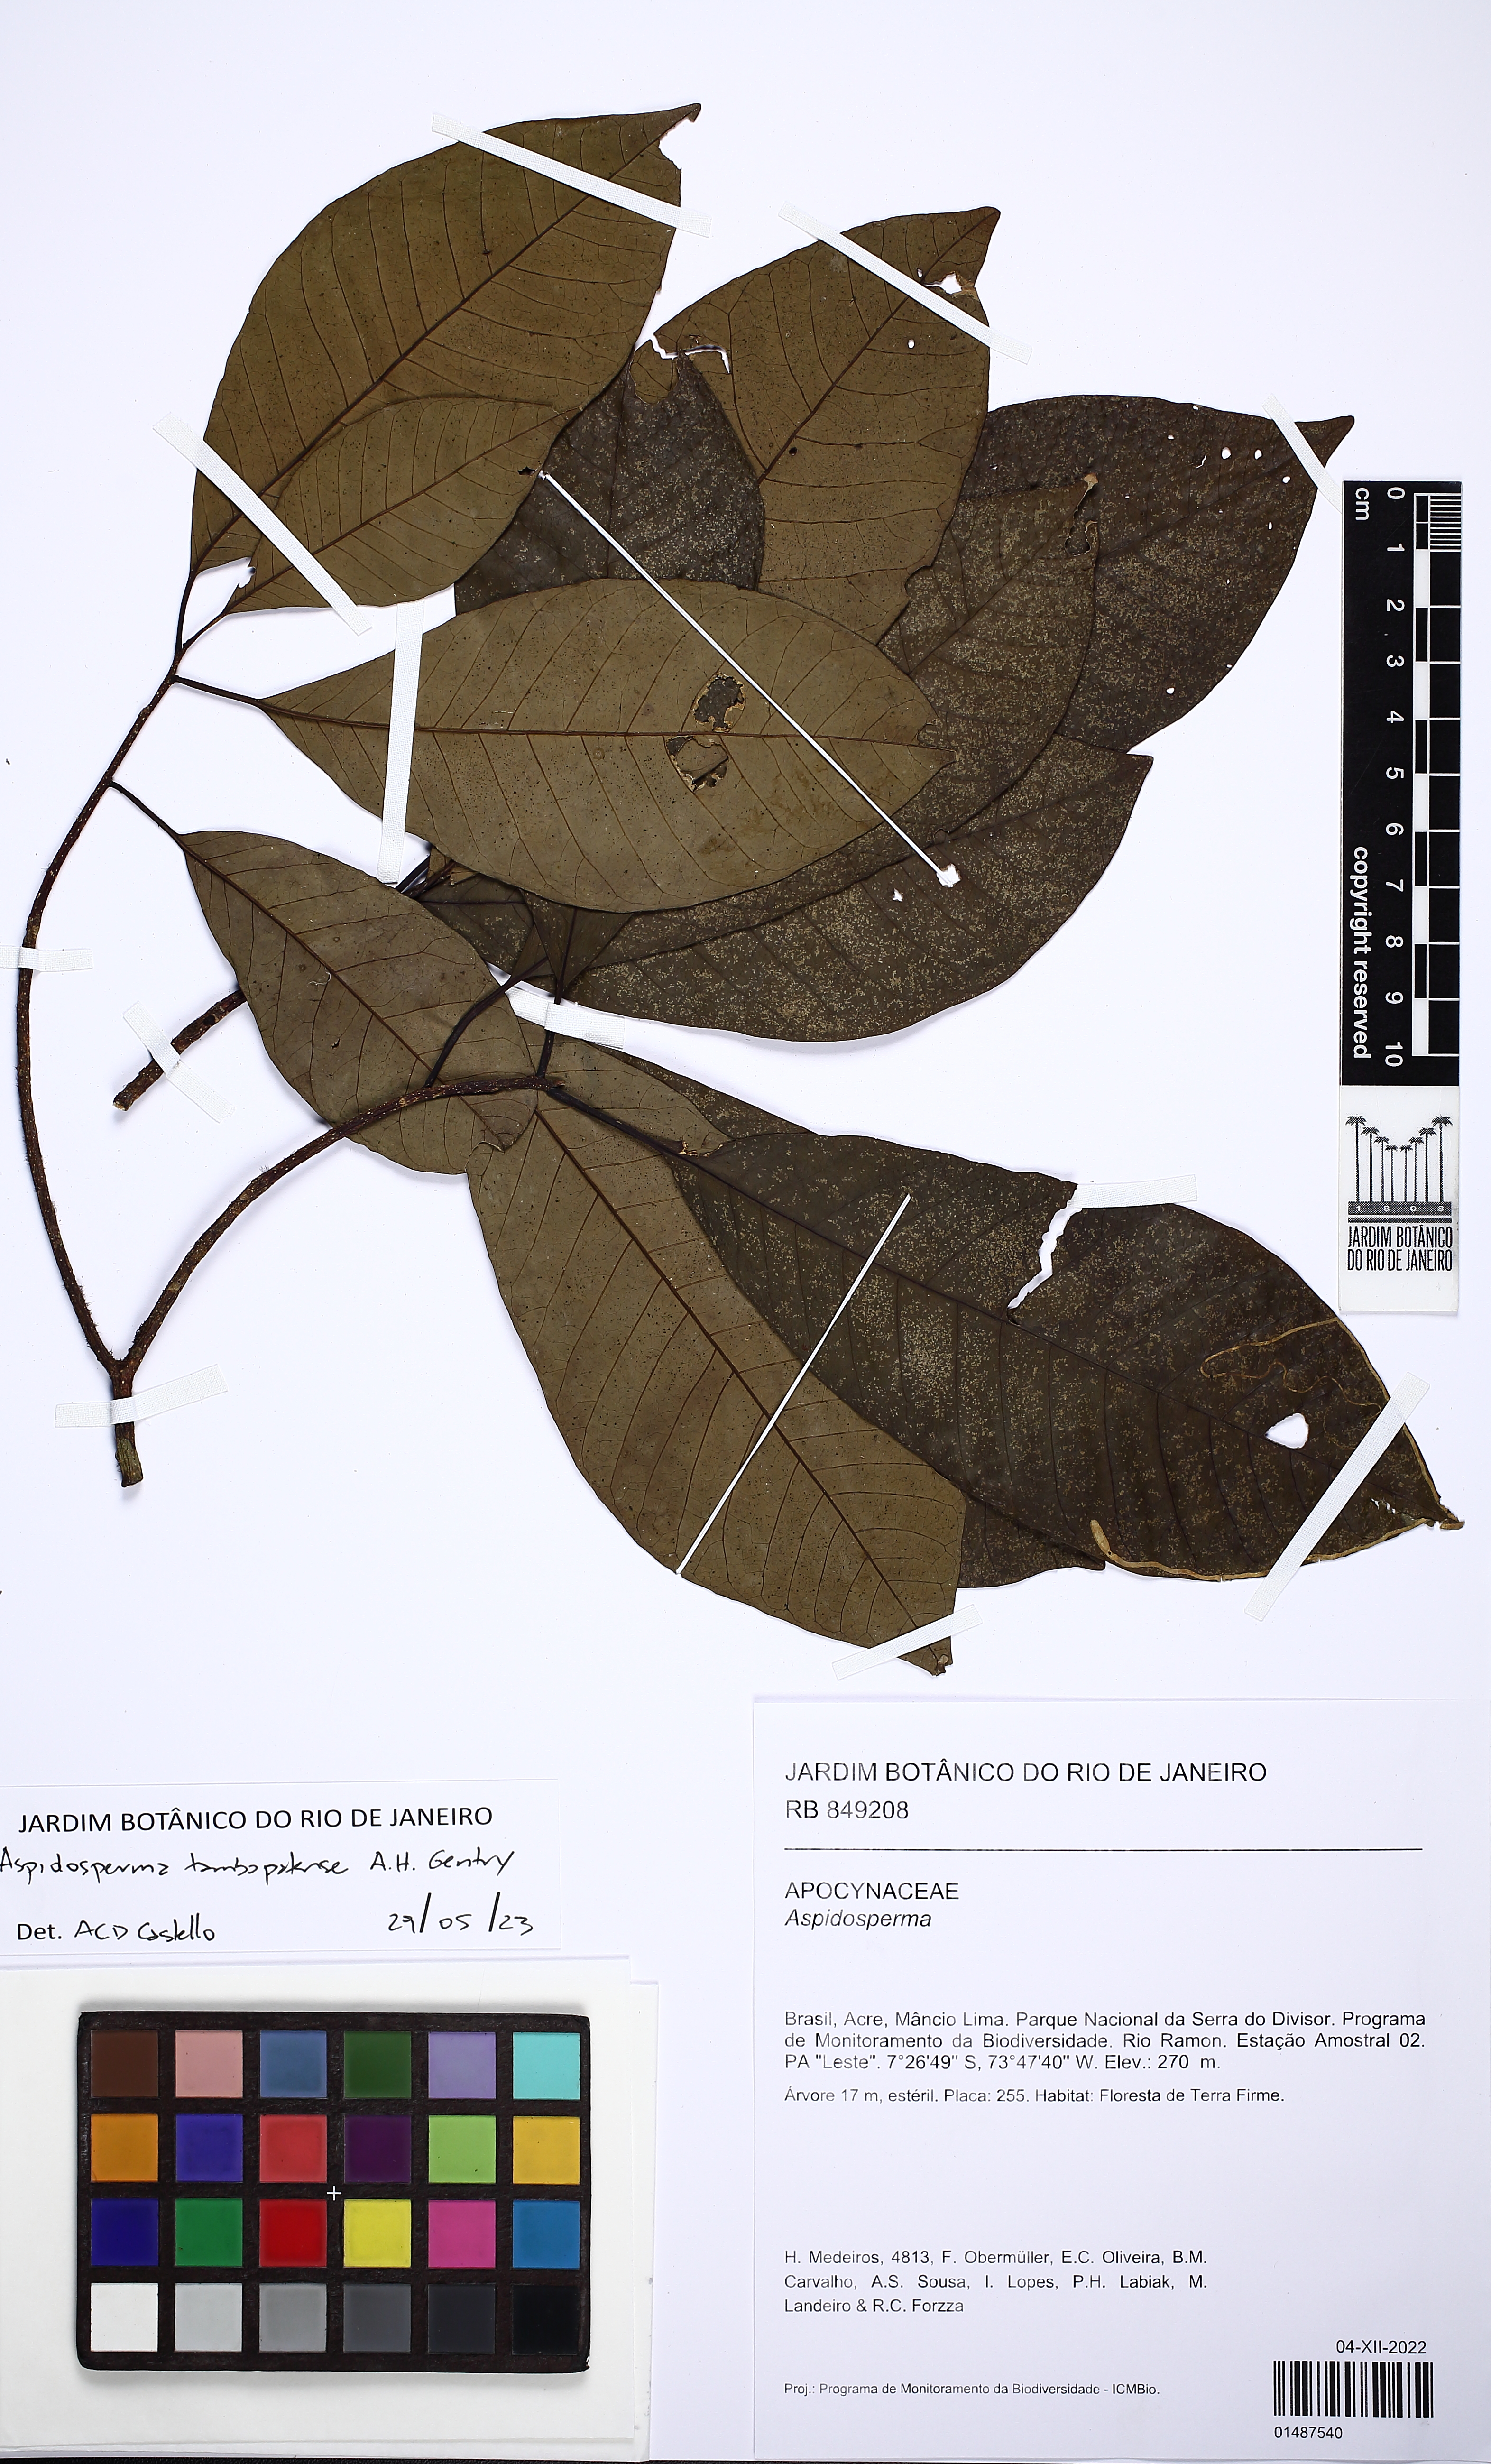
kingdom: Plantae
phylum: Tracheophyta
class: Magnoliopsida
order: Gentianales
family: Apocynaceae
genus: Aspidosperma
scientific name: Aspidosperma parvifolium
